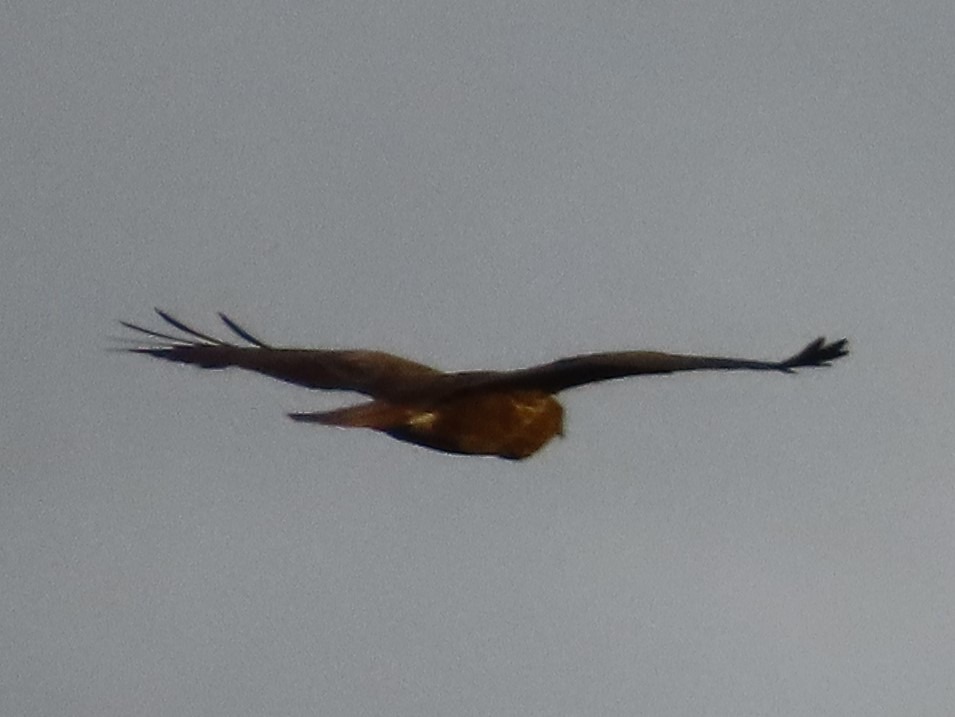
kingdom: Animalia
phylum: Chordata
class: Aves
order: Accipitriformes
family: Accipitridae
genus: Buteo
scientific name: Buteo buteo
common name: Musvåge
